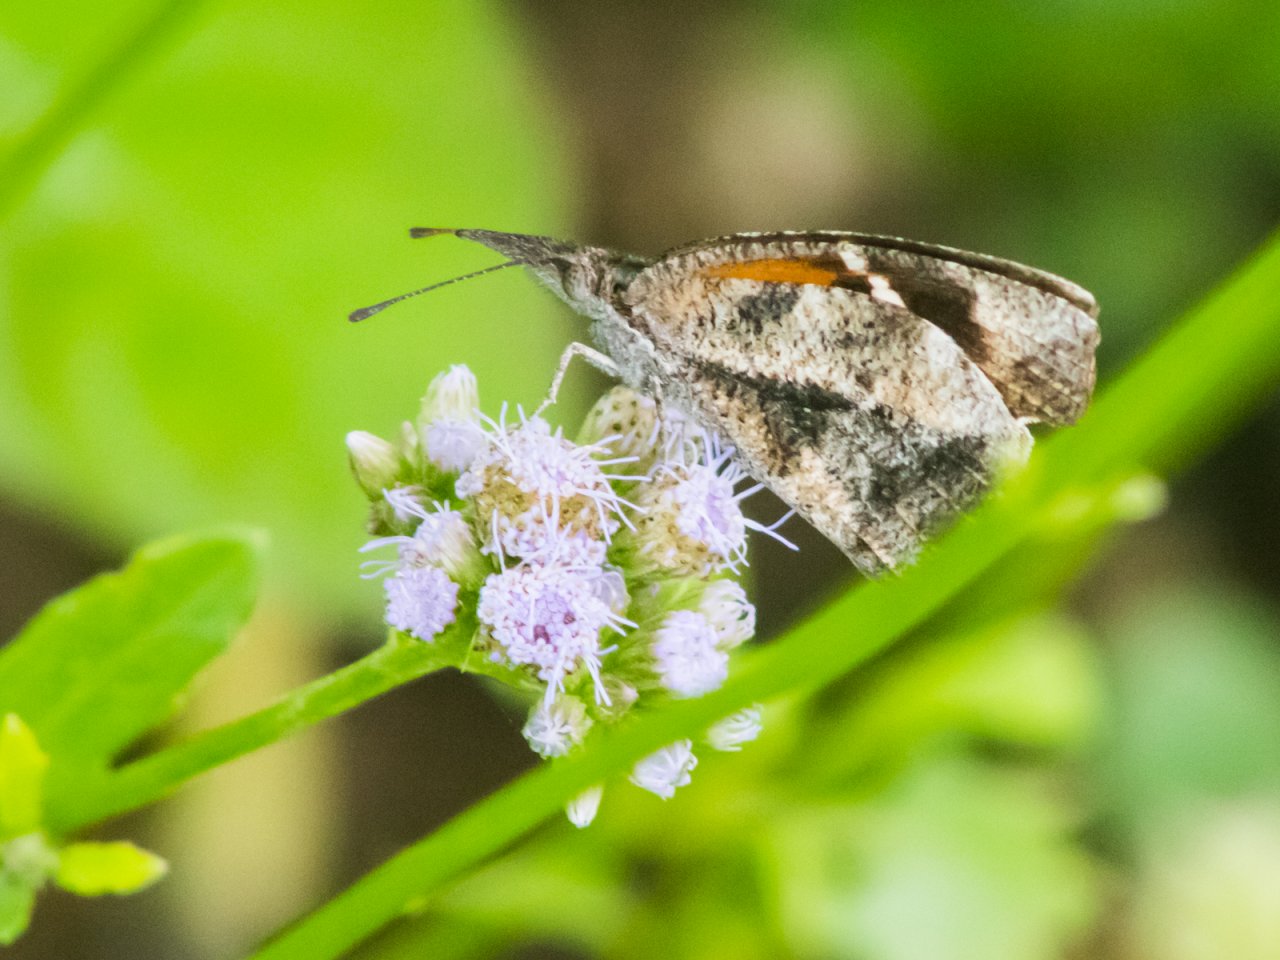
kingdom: Animalia
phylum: Arthropoda
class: Insecta
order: Lepidoptera
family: Nymphalidae
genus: Libytheana
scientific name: Libytheana carinenta
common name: American Snout
